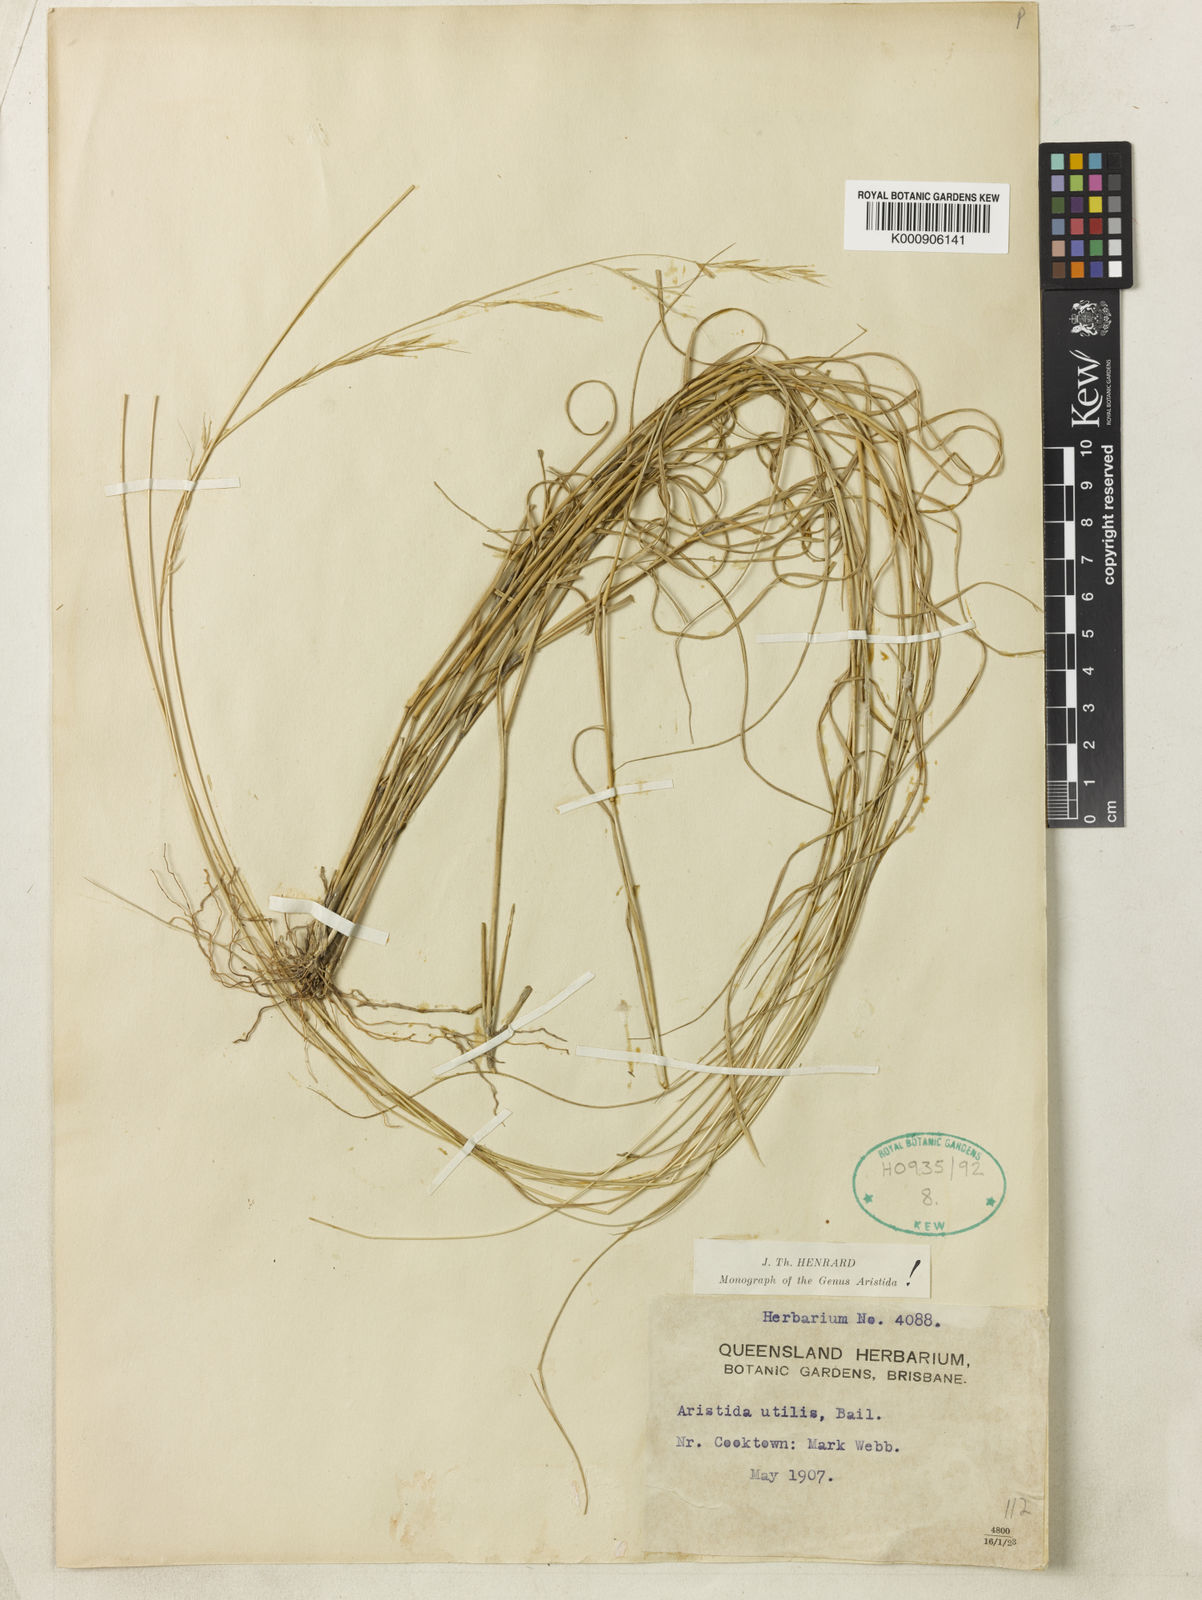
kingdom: Plantae
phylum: Tracheophyta
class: Liliopsida
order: Poales
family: Poaceae
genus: Aristida
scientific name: Aristida utilis
